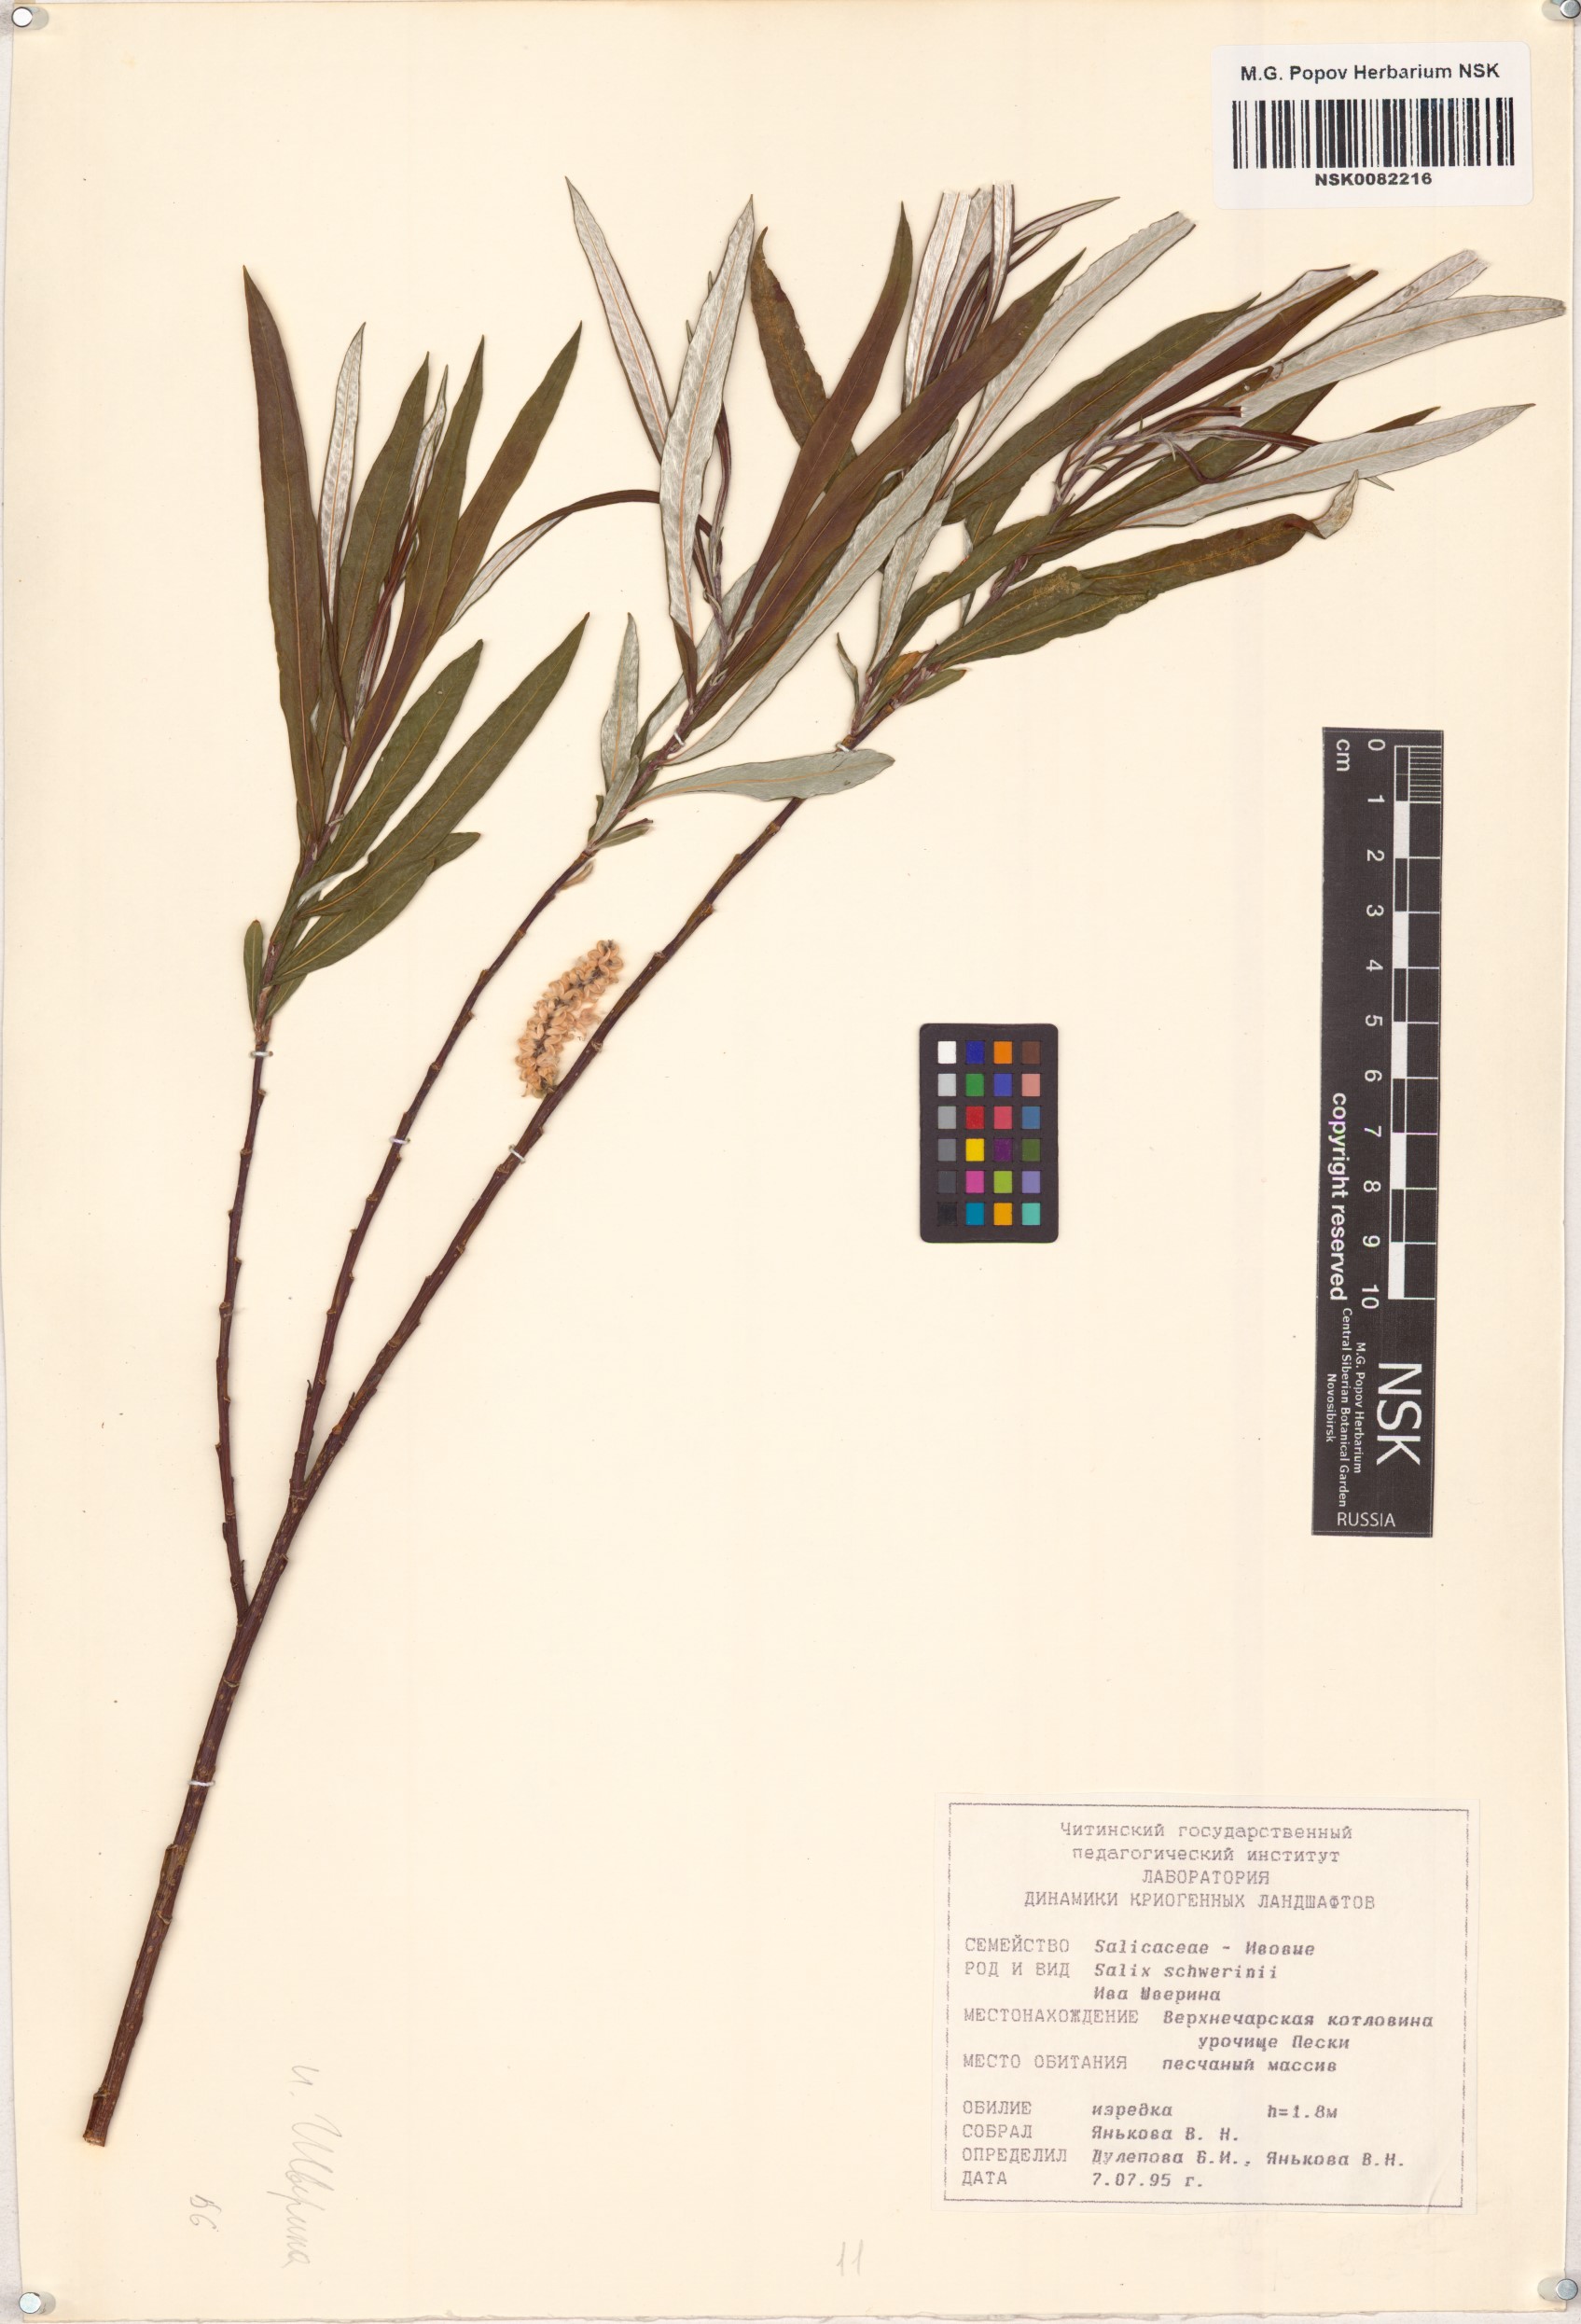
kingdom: Plantae
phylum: Tracheophyta
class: Magnoliopsida
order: Malpighiales
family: Salicaceae
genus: Salix
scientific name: Salix schwerinii
